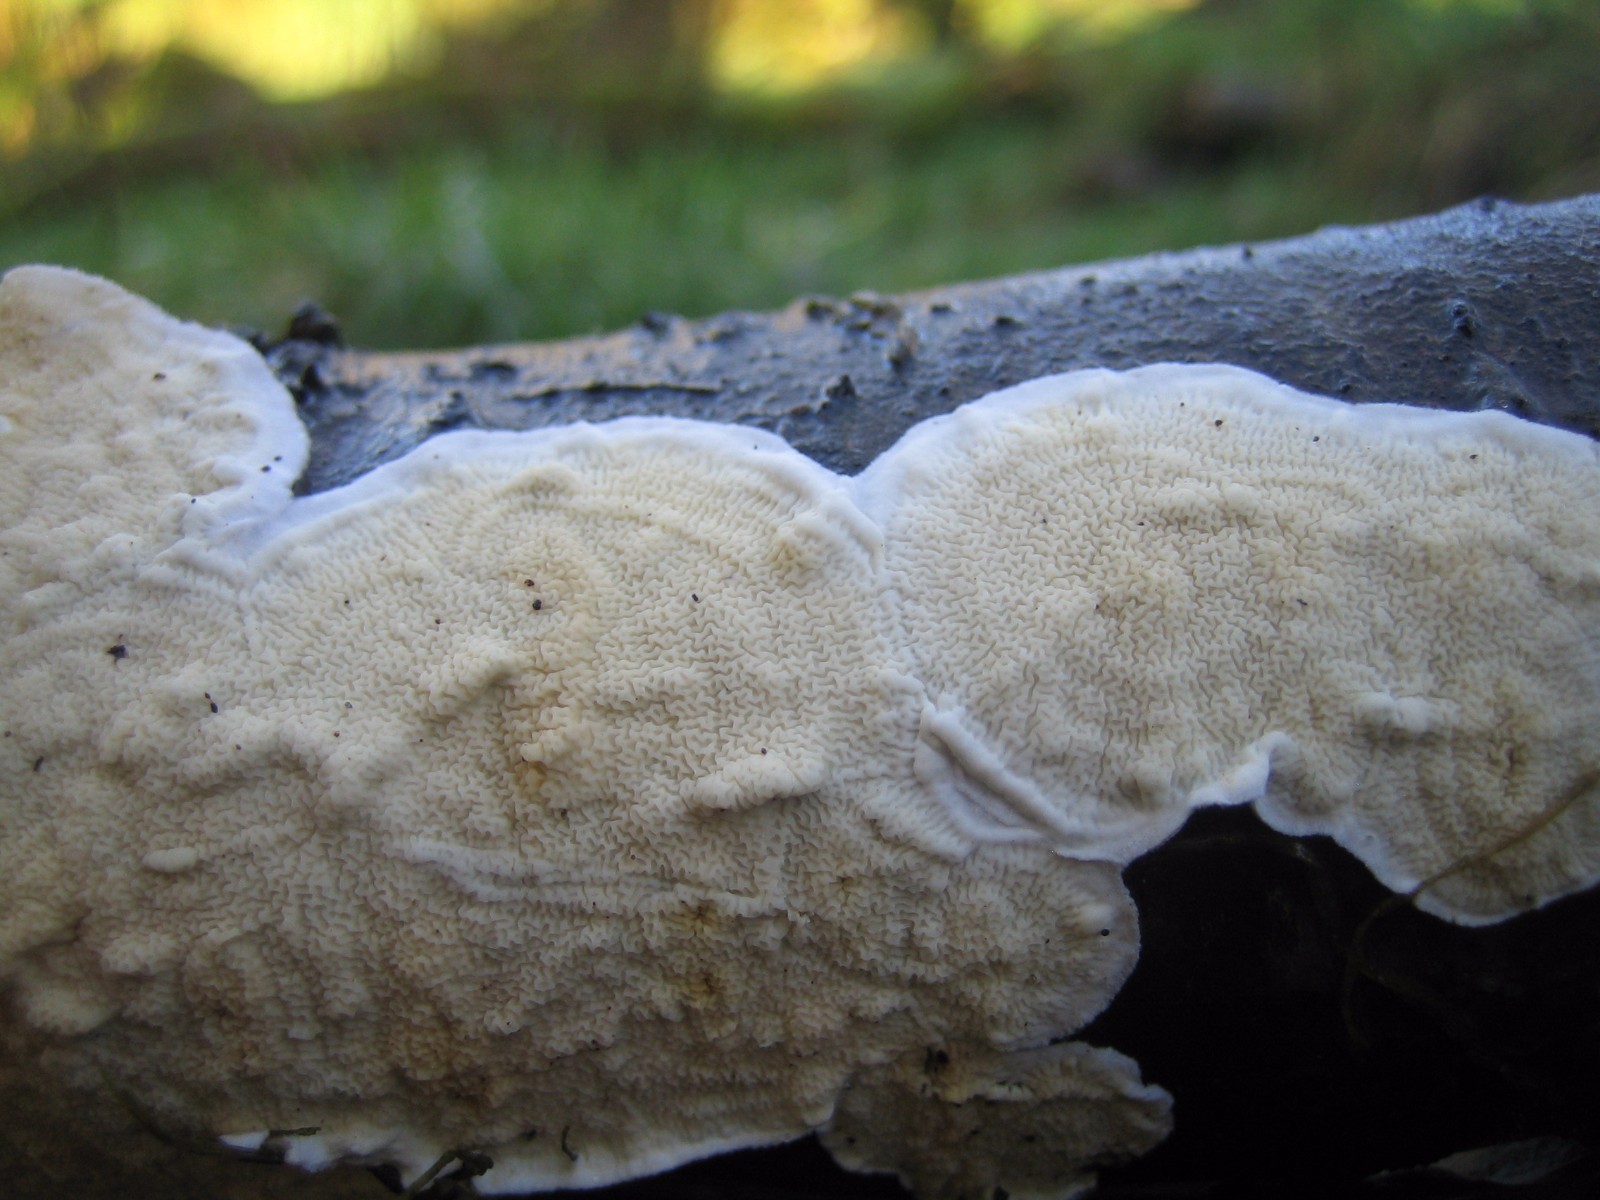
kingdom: Fungi
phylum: Basidiomycota
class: Agaricomycetes
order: Polyporales
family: Irpicaceae
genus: Byssomerulius
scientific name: Byssomerulius corium
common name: læder-åresvamp
